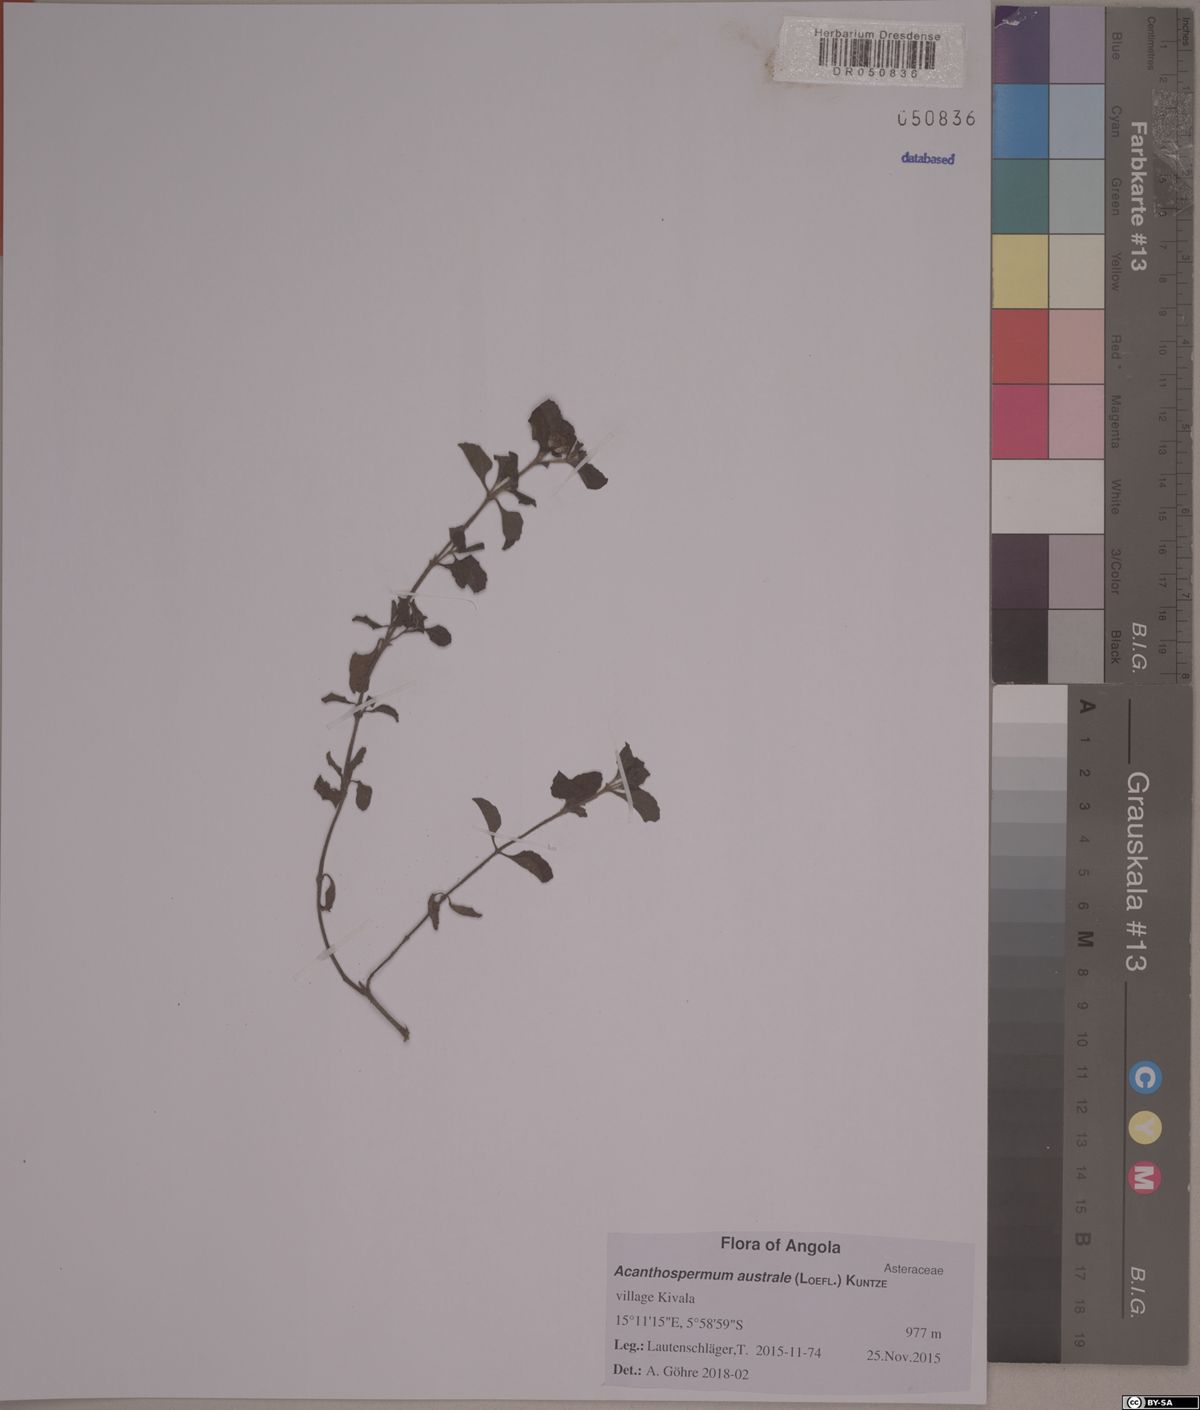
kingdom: Plantae
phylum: Tracheophyta
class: Magnoliopsida
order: Asterales
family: Asteraceae
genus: Acanthospermum
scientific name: Acanthospermum australe
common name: Paraguayan starbur
